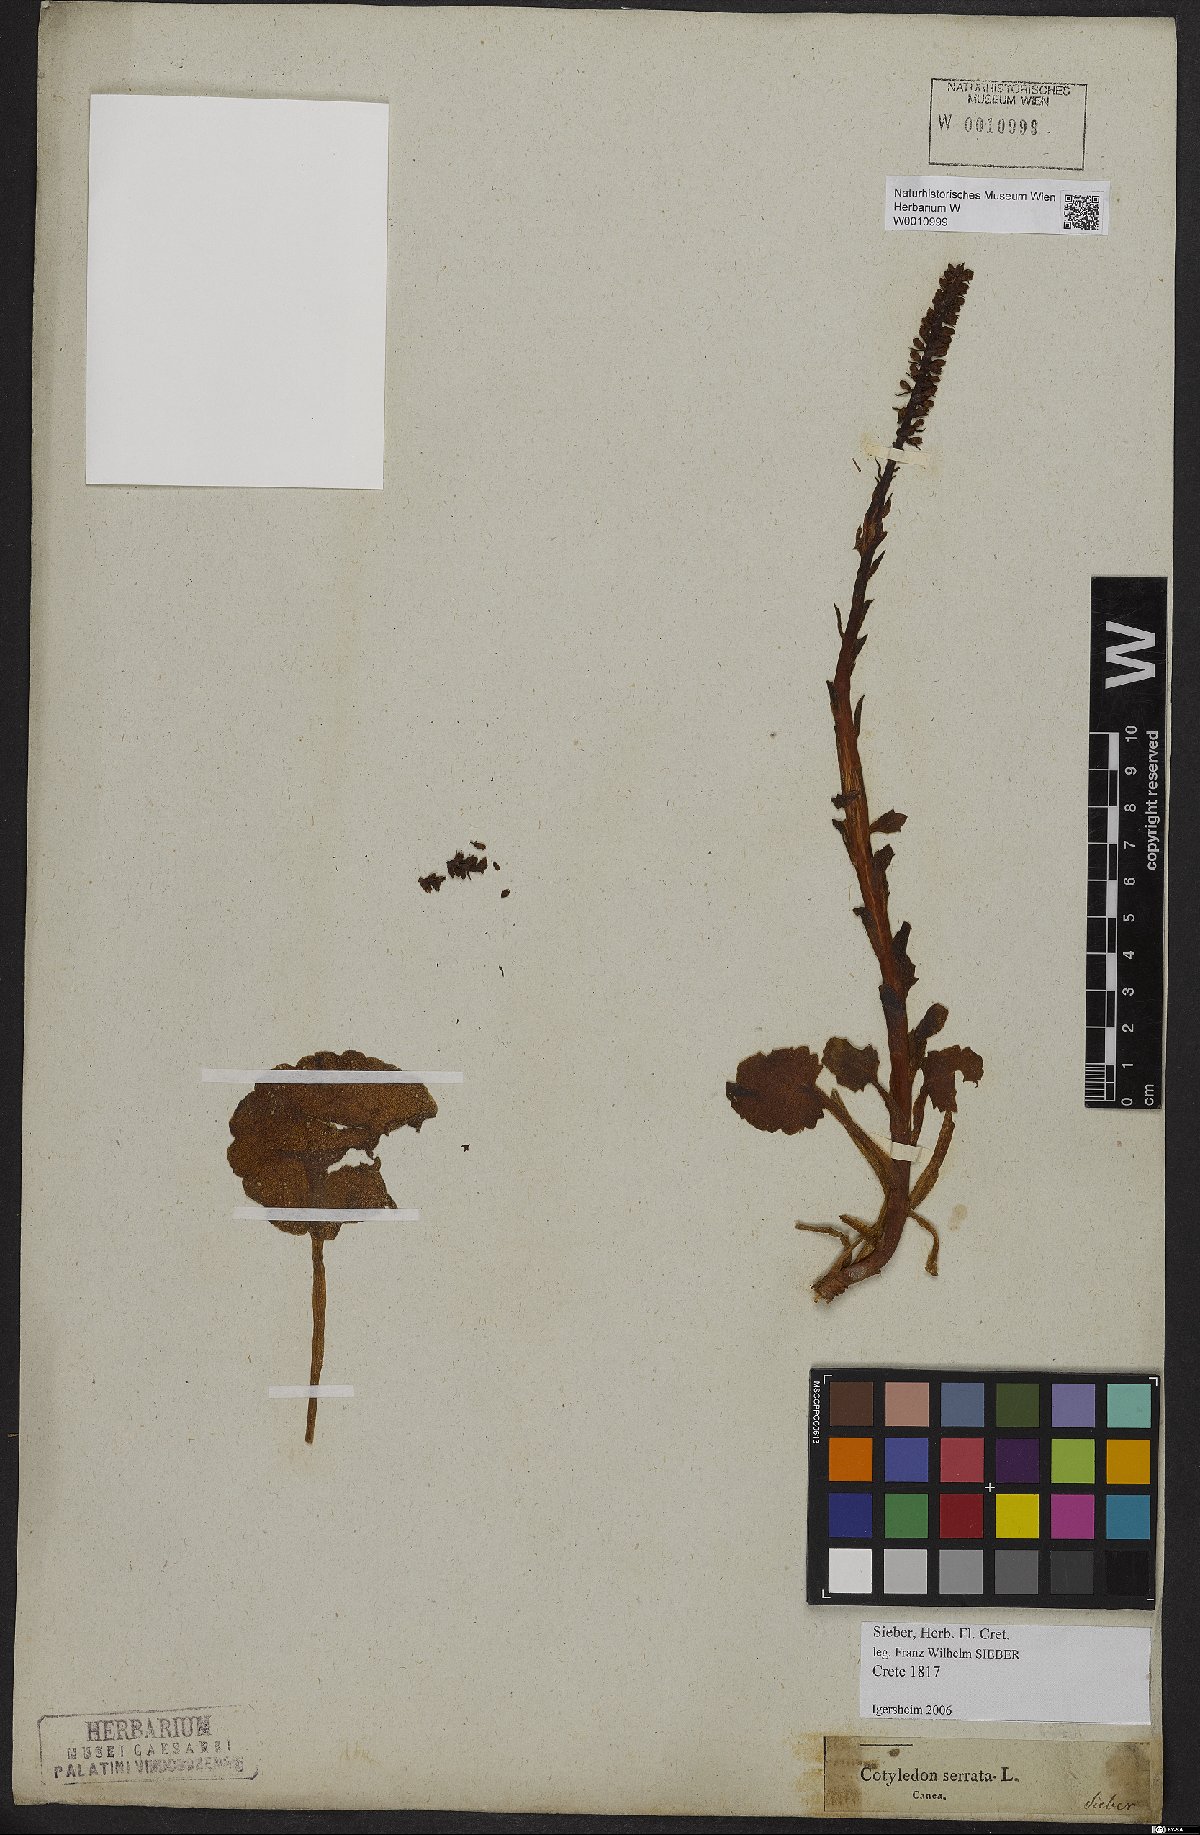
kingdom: Plantae
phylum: Tracheophyta
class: Magnoliopsida
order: Saxifragales
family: Crassulaceae
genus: Umbilicus
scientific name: Umbilicus horizontalis
